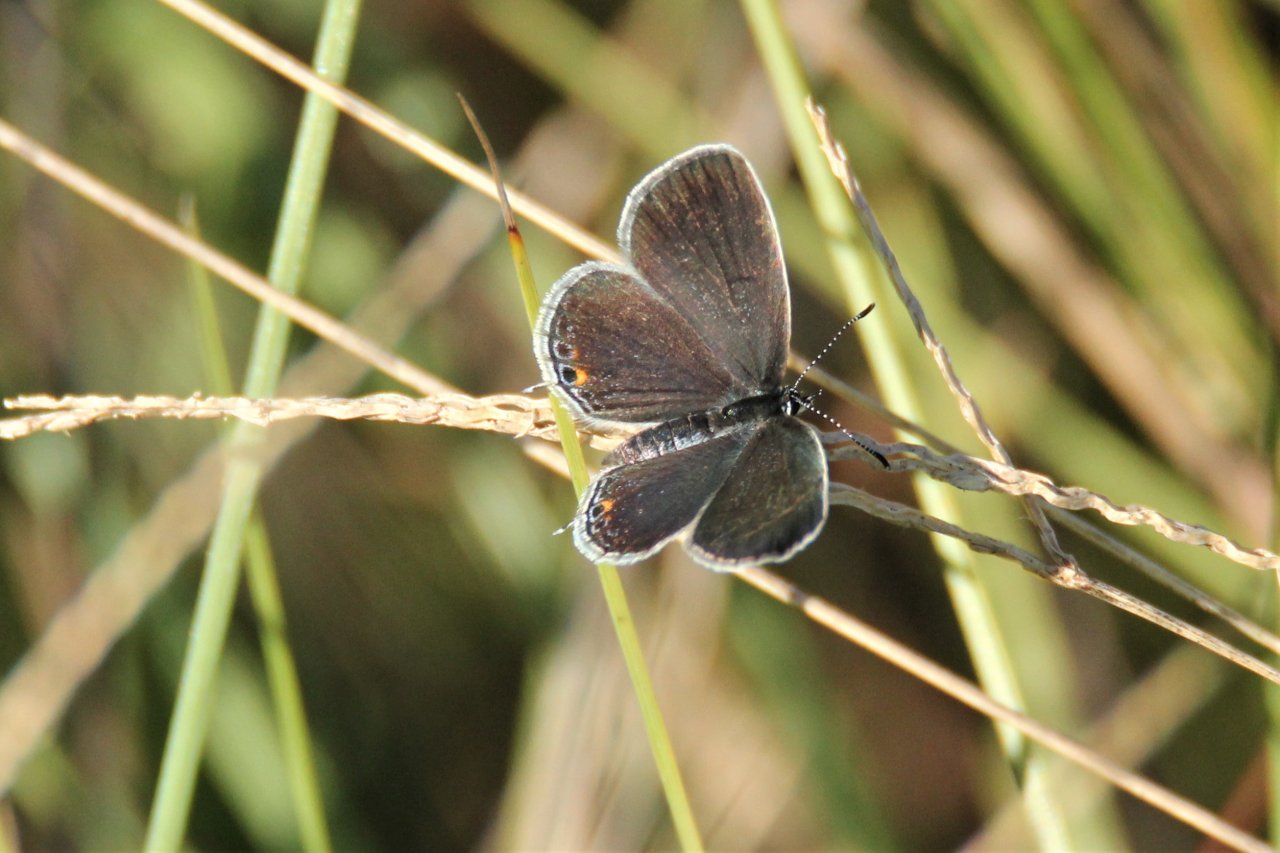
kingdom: Animalia
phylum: Arthropoda
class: Insecta
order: Lepidoptera
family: Lycaenidae
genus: Elkalyce
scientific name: Elkalyce comyntas
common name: Eastern Tailed-Blue
